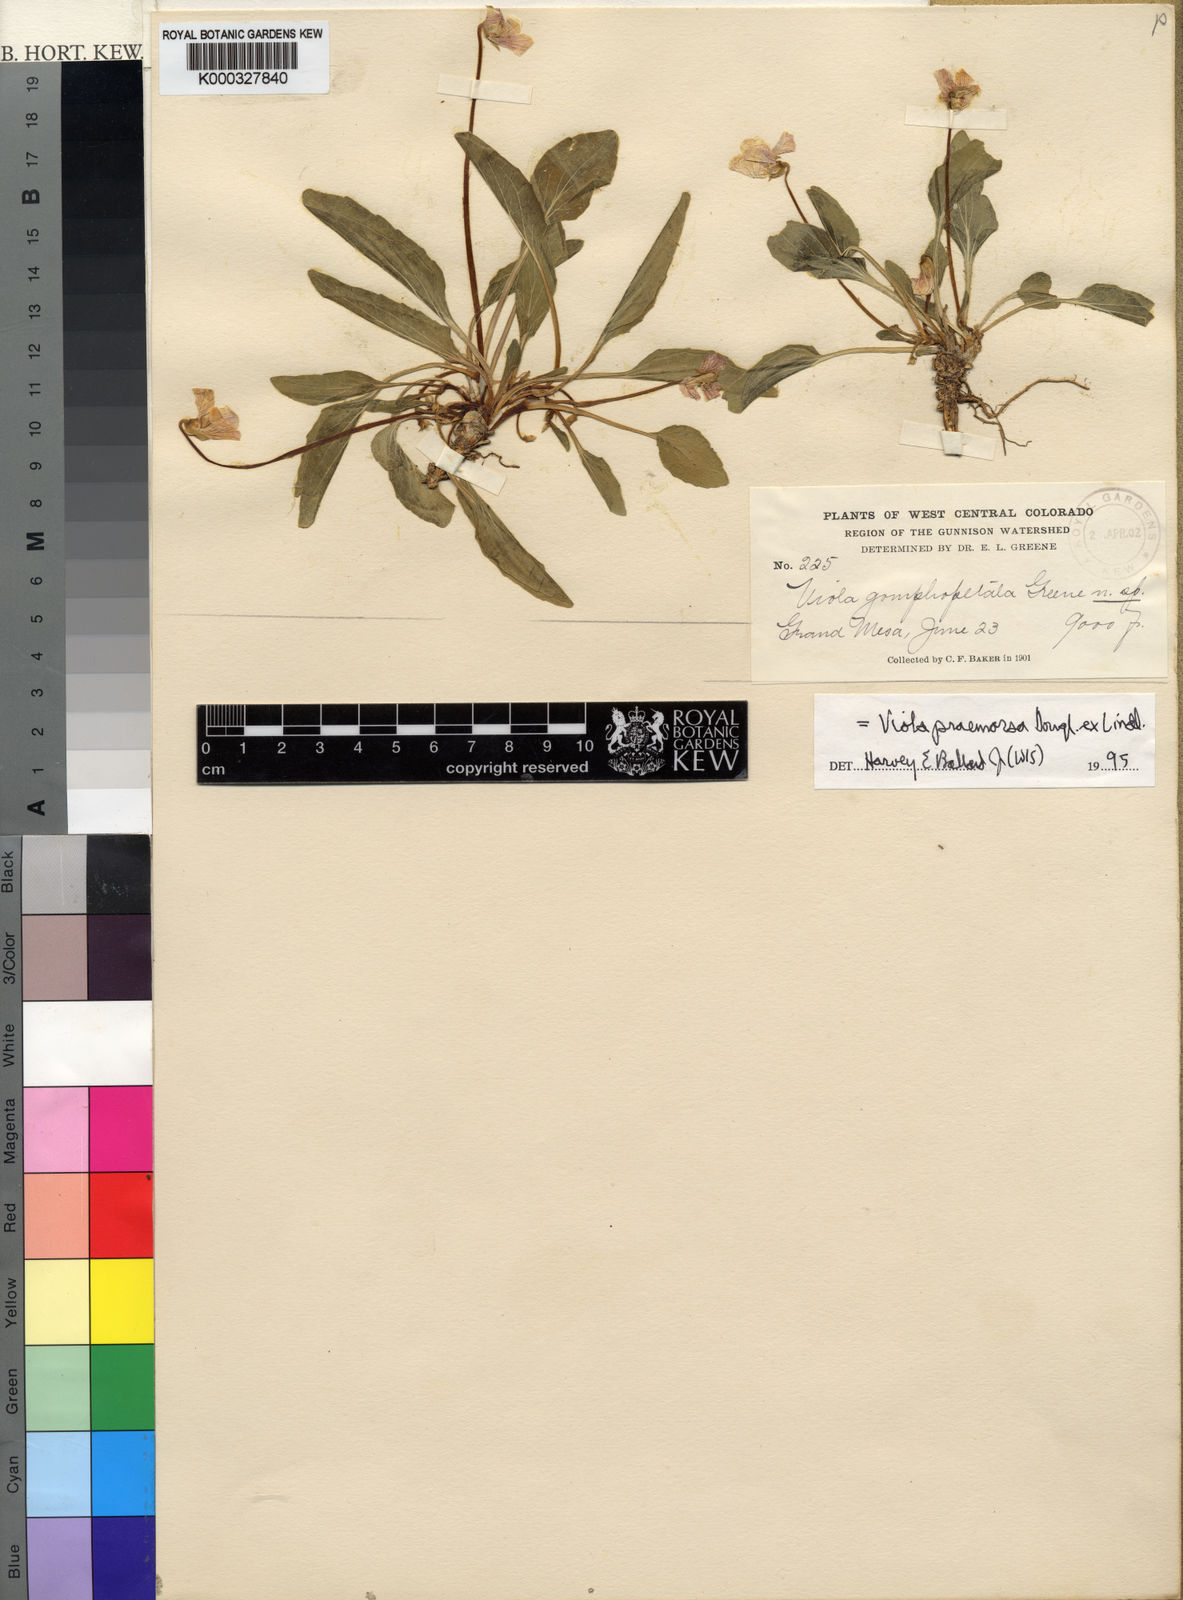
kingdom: Plantae
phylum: Tracheophyta
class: Magnoliopsida
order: Malpighiales
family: Violaceae
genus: Viola
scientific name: Viola praemorsa
